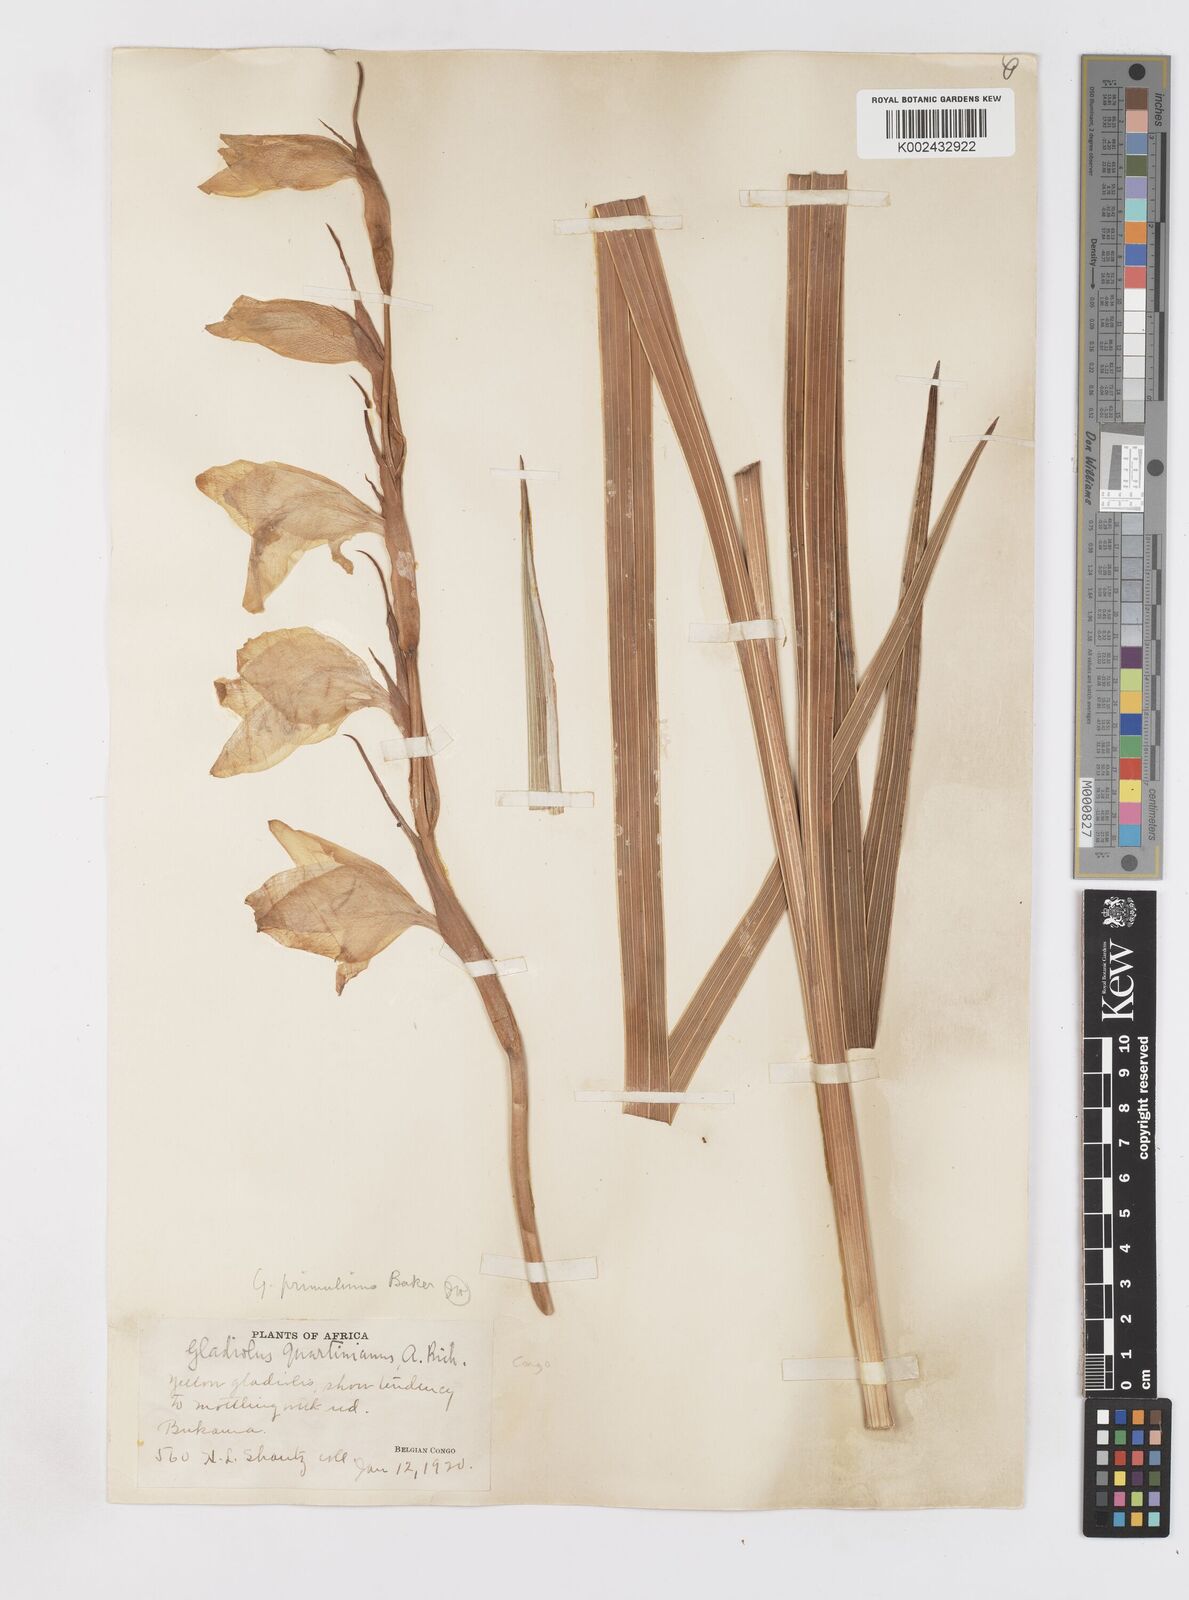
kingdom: Plantae
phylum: Tracheophyta
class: Liliopsida
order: Asparagales
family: Iridaceae
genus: Gladiolus
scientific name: Gladiolus dalenii
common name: Cornflag
